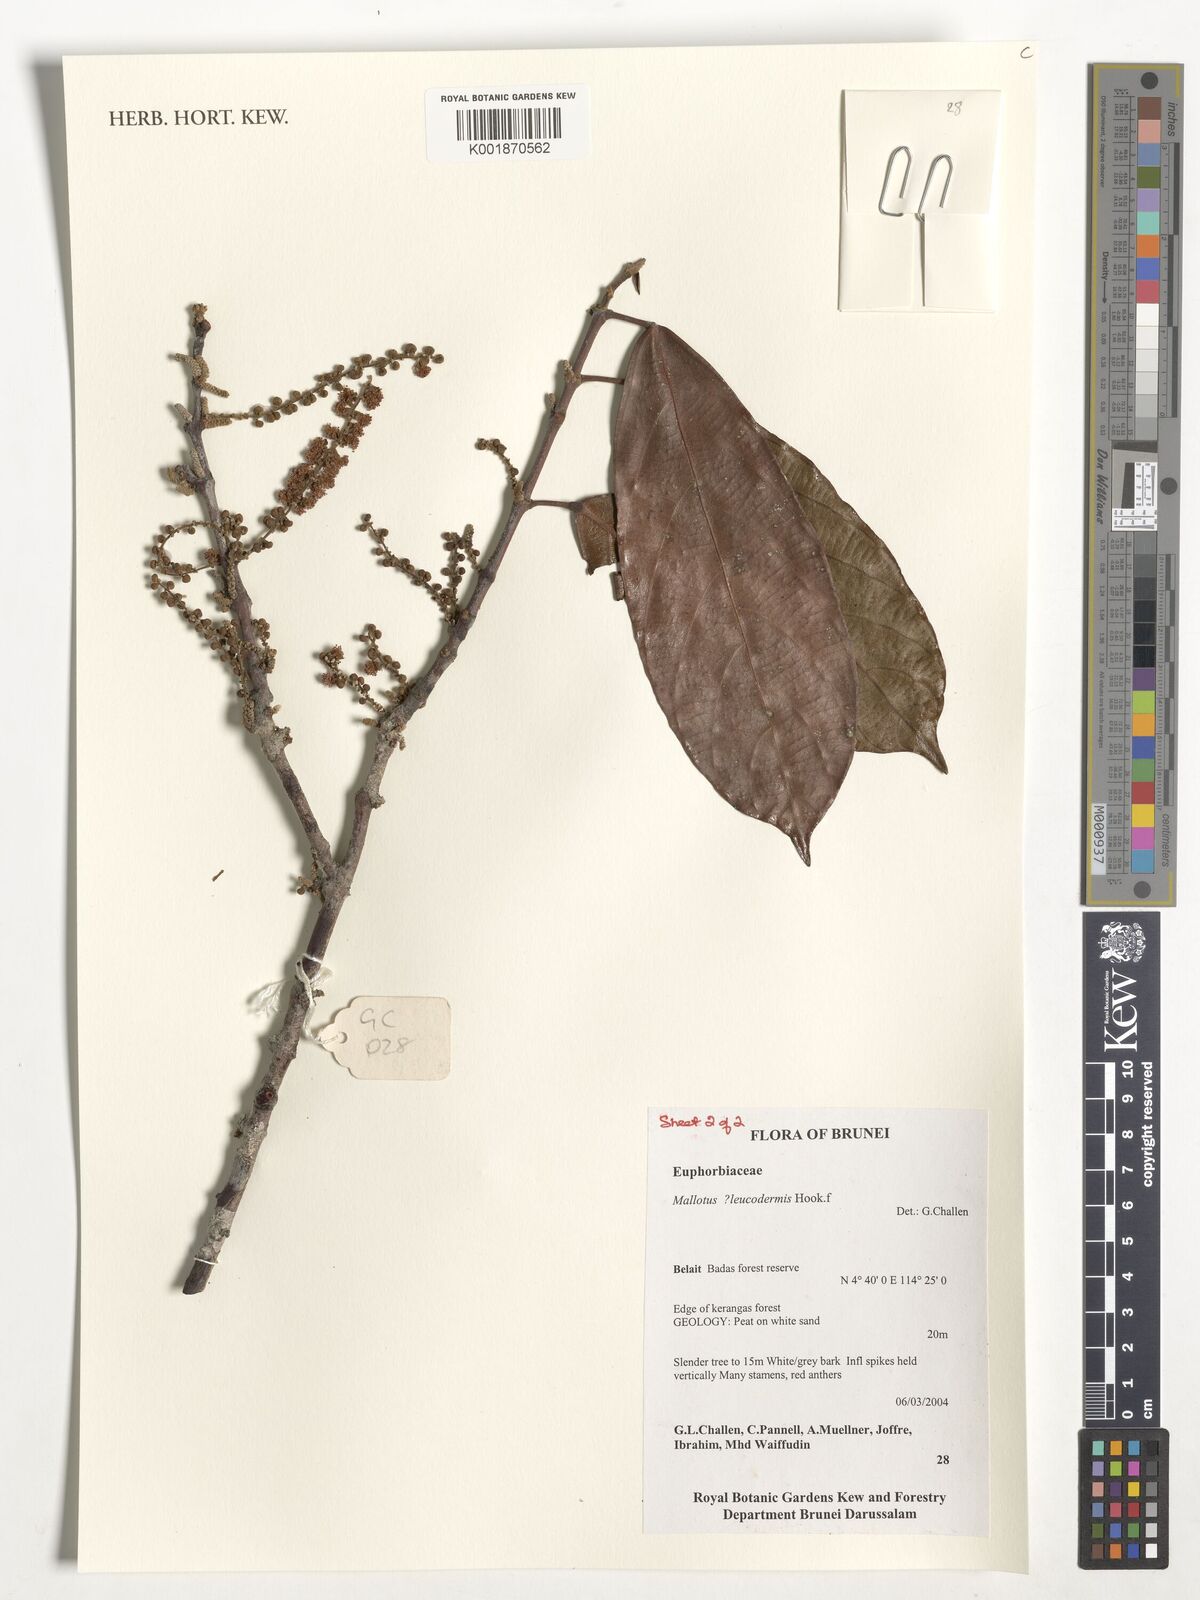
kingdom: Plantae
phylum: Tracheophyta
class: Magnoliopsida
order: Malpighiales
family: Euphorbiaceae
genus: Mallotus
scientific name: Mallotus leucodermis
